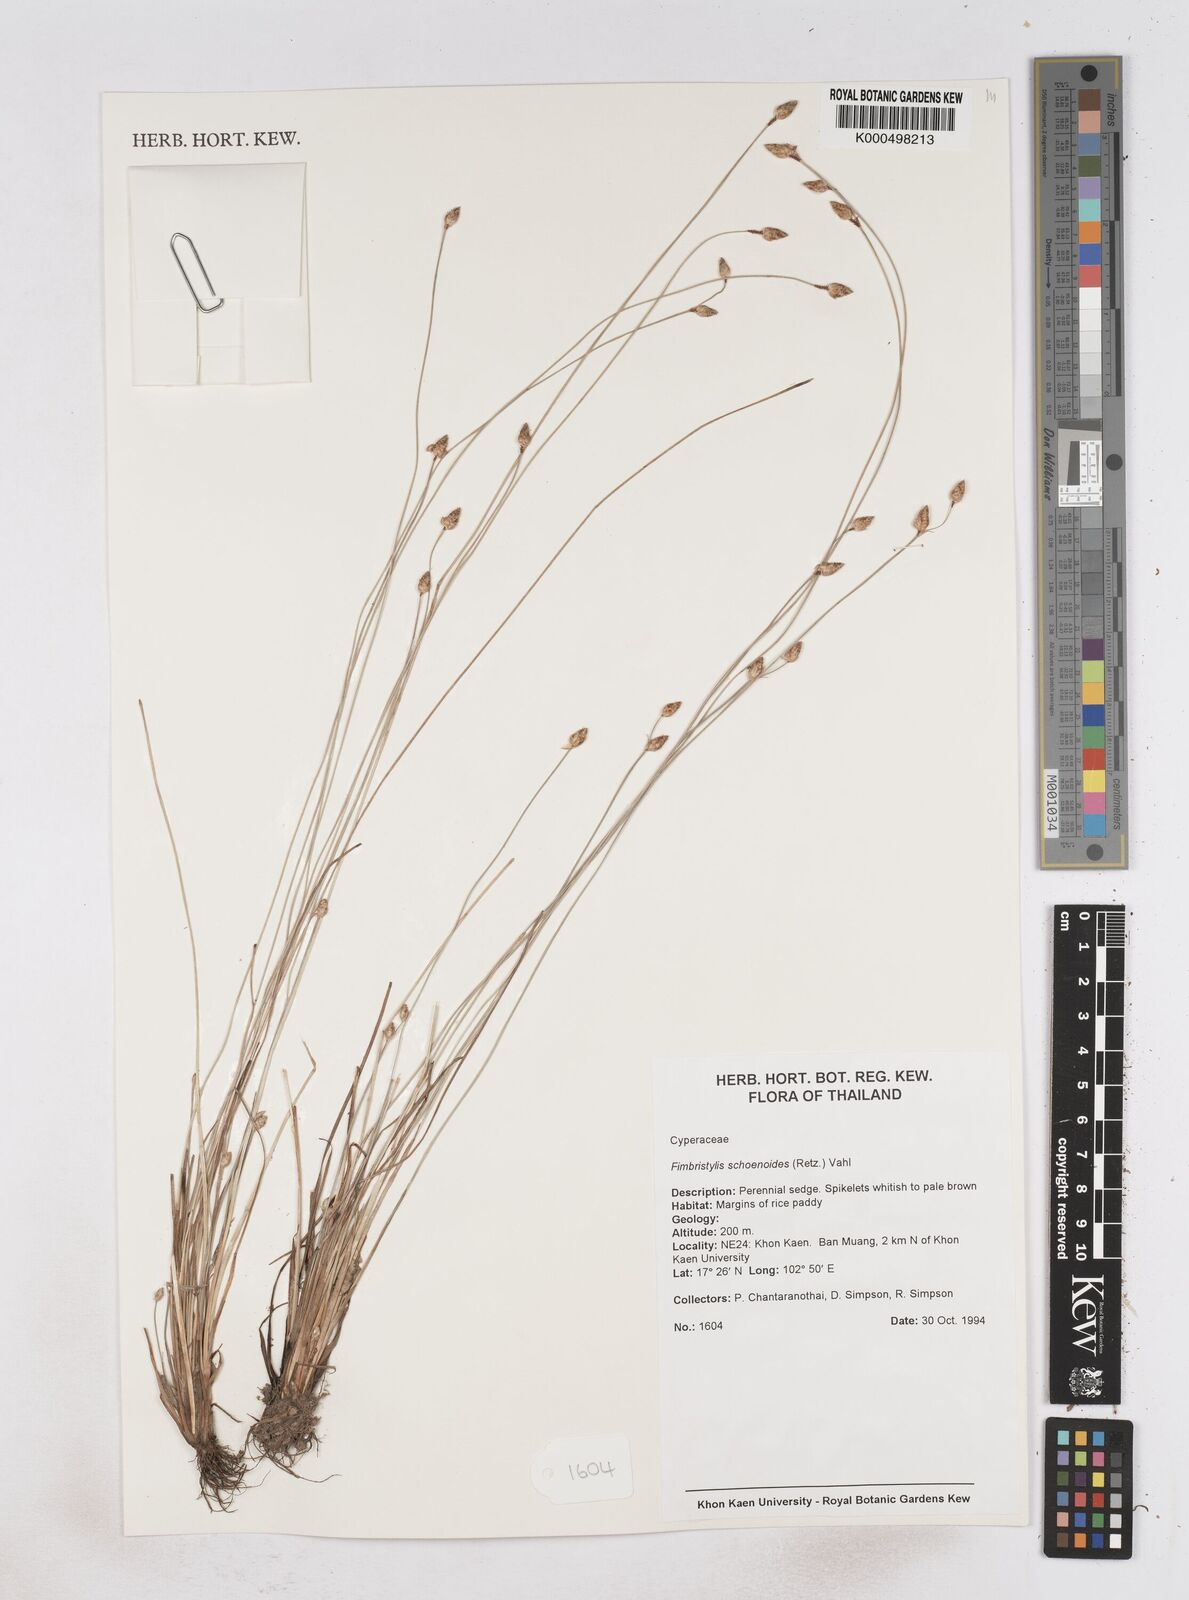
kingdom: Plantae
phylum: Tracheophyta
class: Liliopsida
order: Poales
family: Cyperaceae
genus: Fimbristylis
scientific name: Fimbristylis schoenoides
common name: Ditch fimbry
